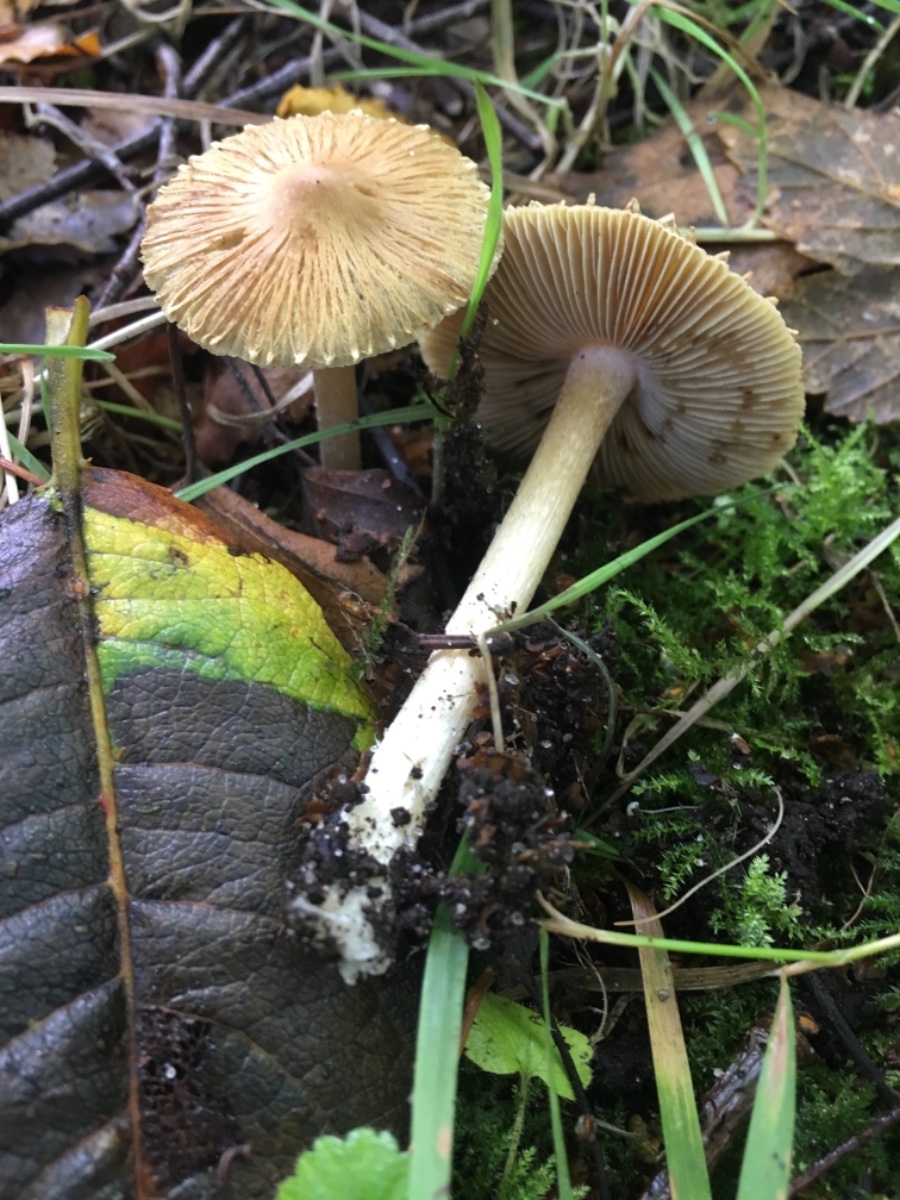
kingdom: Fungi
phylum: Basidiomycota
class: Agaricomycetes
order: Agaricales
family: Inocybaceae
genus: Pseudosperma
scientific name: Pseudosperma
